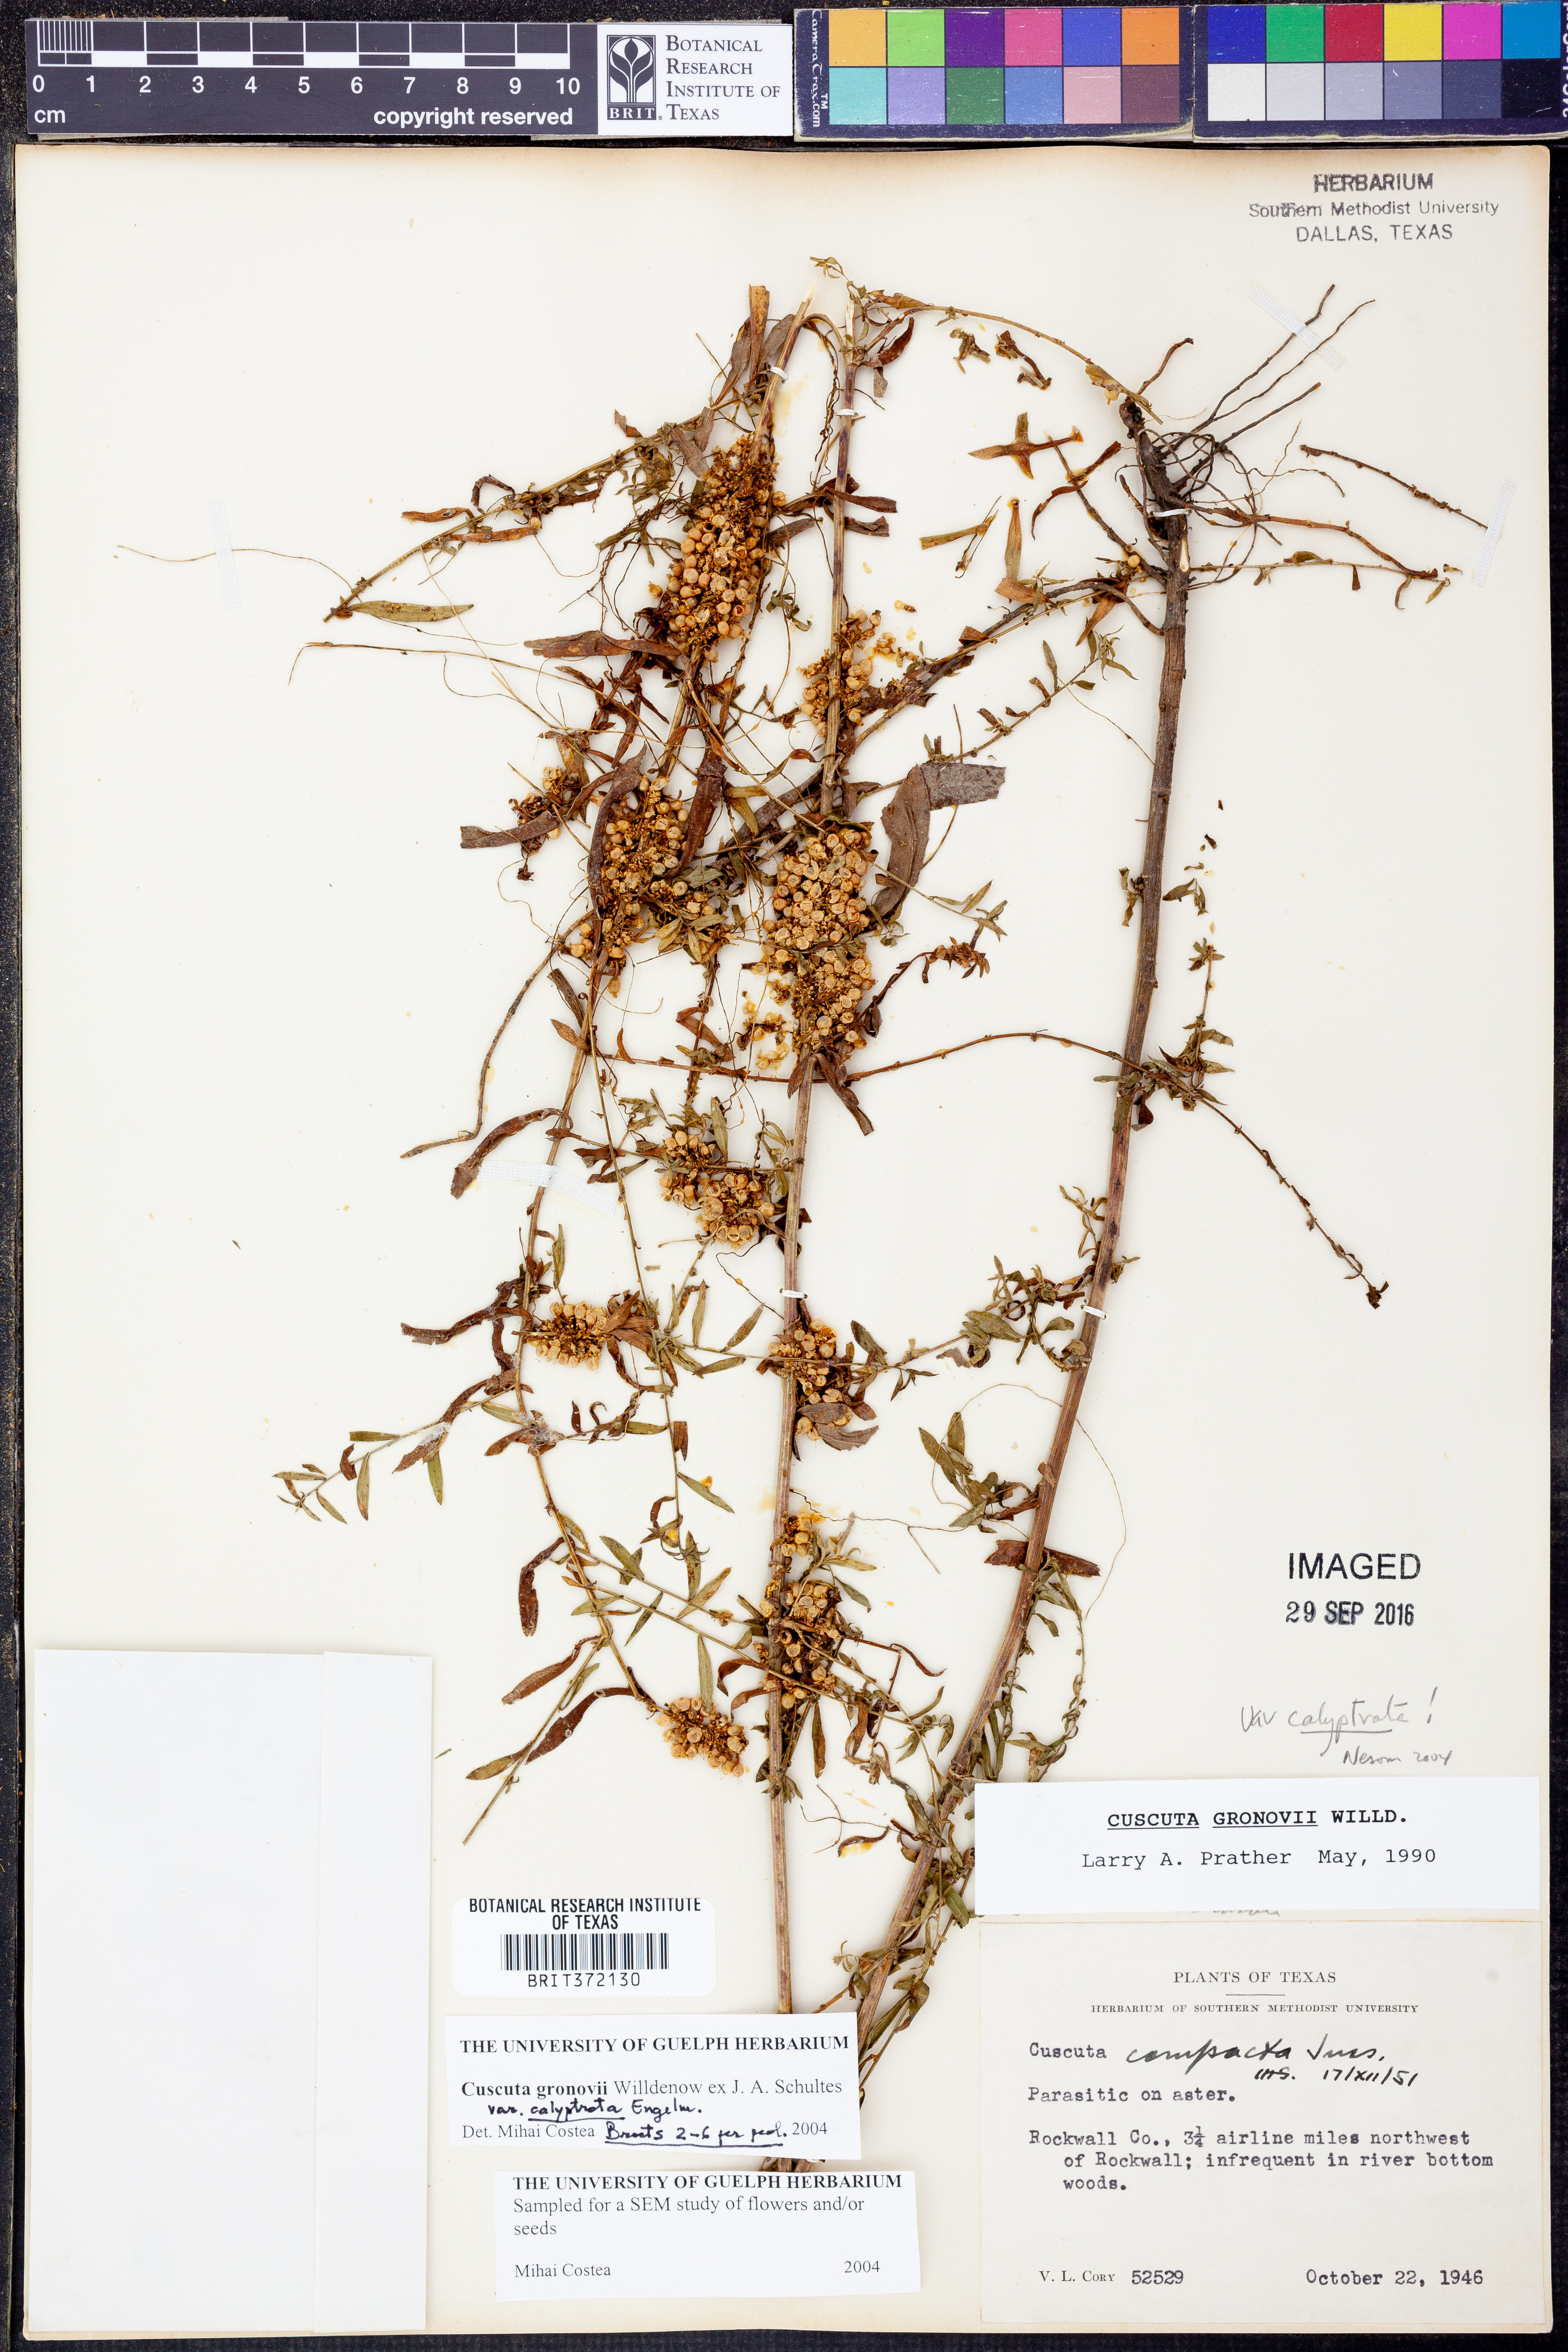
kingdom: Plantae
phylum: Tracheophyta
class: Magnoliopsida
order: Solanales
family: Convolvulaceae
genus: Cuscuta
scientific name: Cuscuta gronovii
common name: Common dodder
